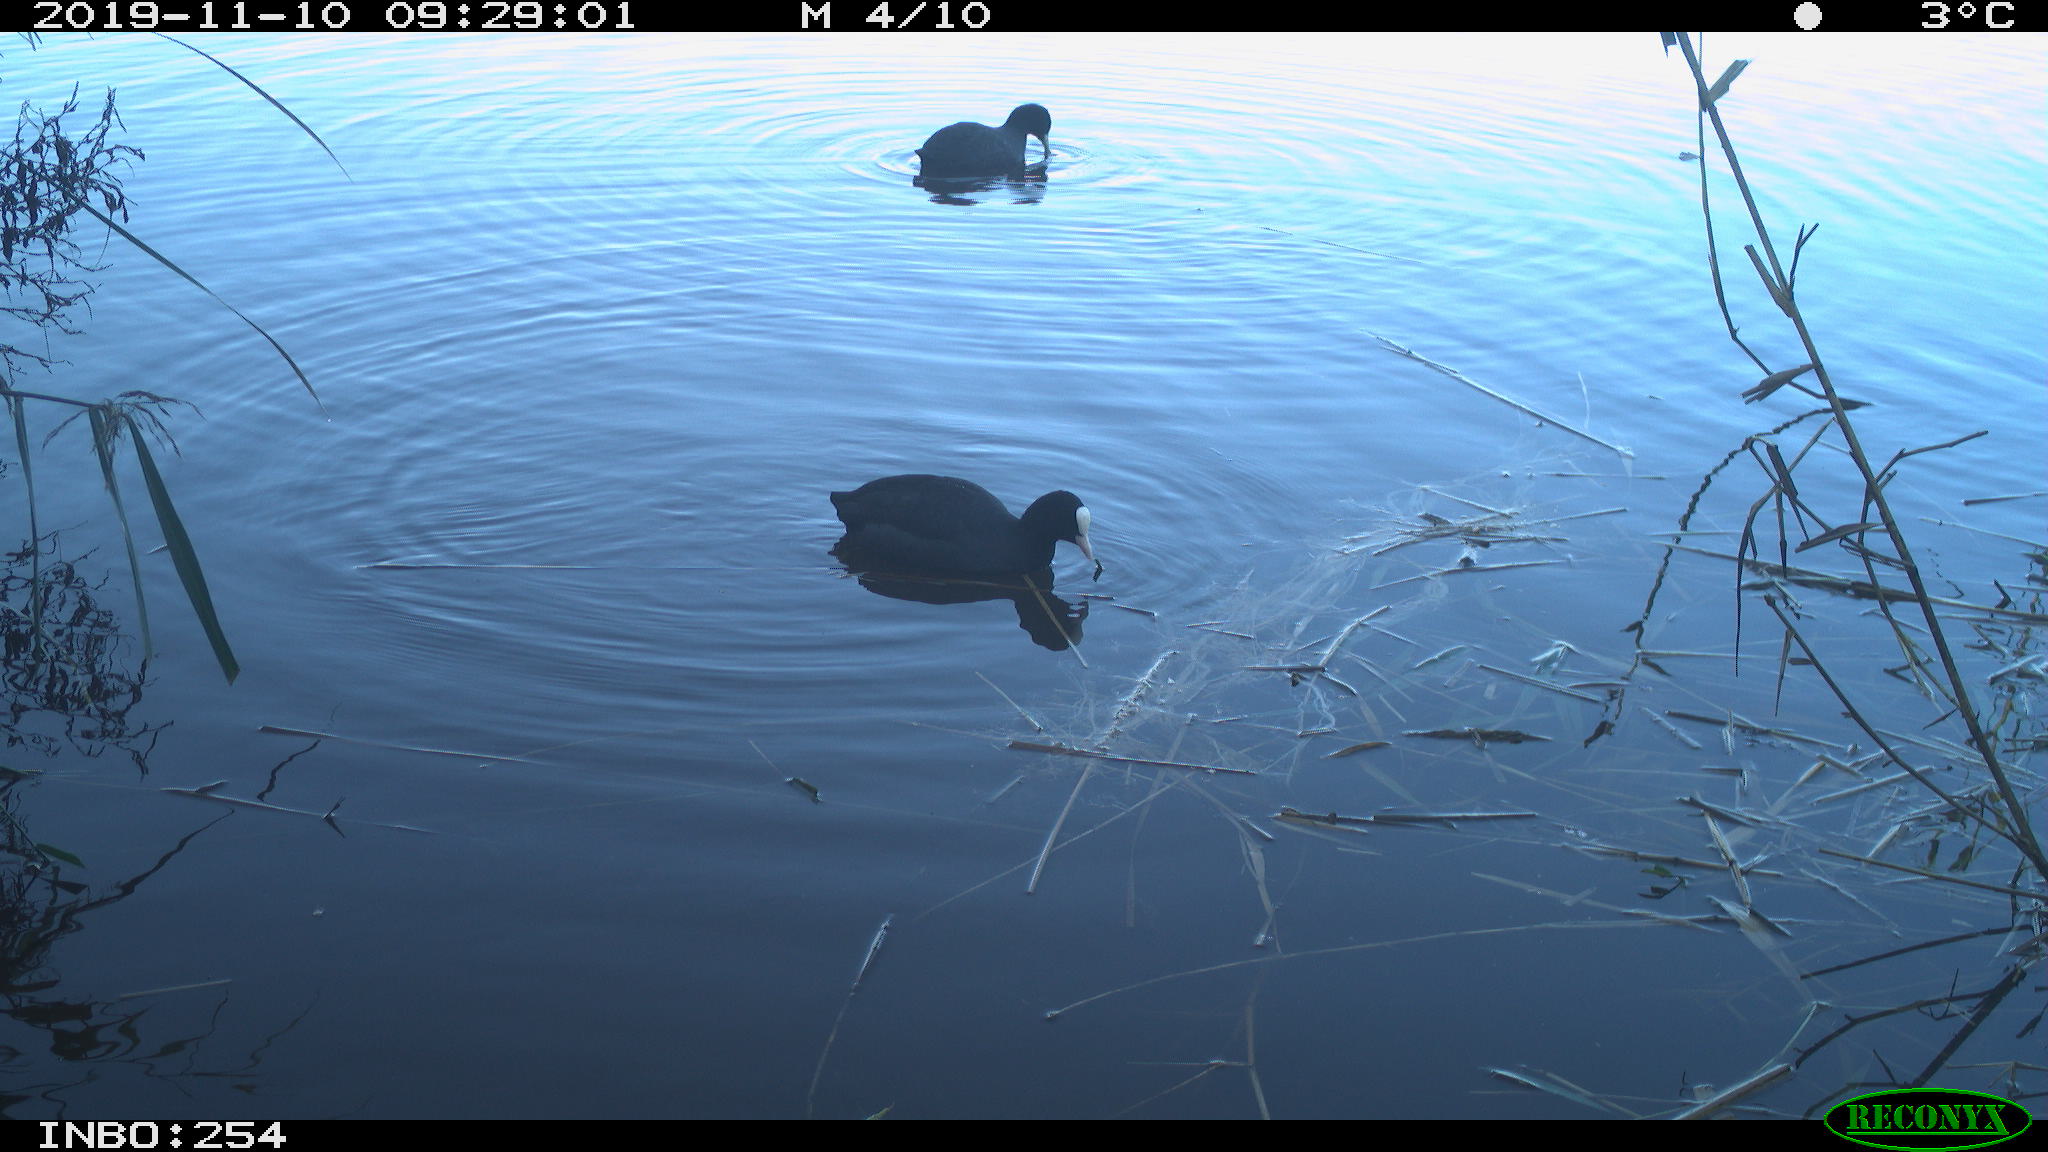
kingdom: Animalia
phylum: Chordata
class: Aves
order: Gruiformes
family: Rallidae
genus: Fulica
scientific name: Fulica atra
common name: Eurasian coot
